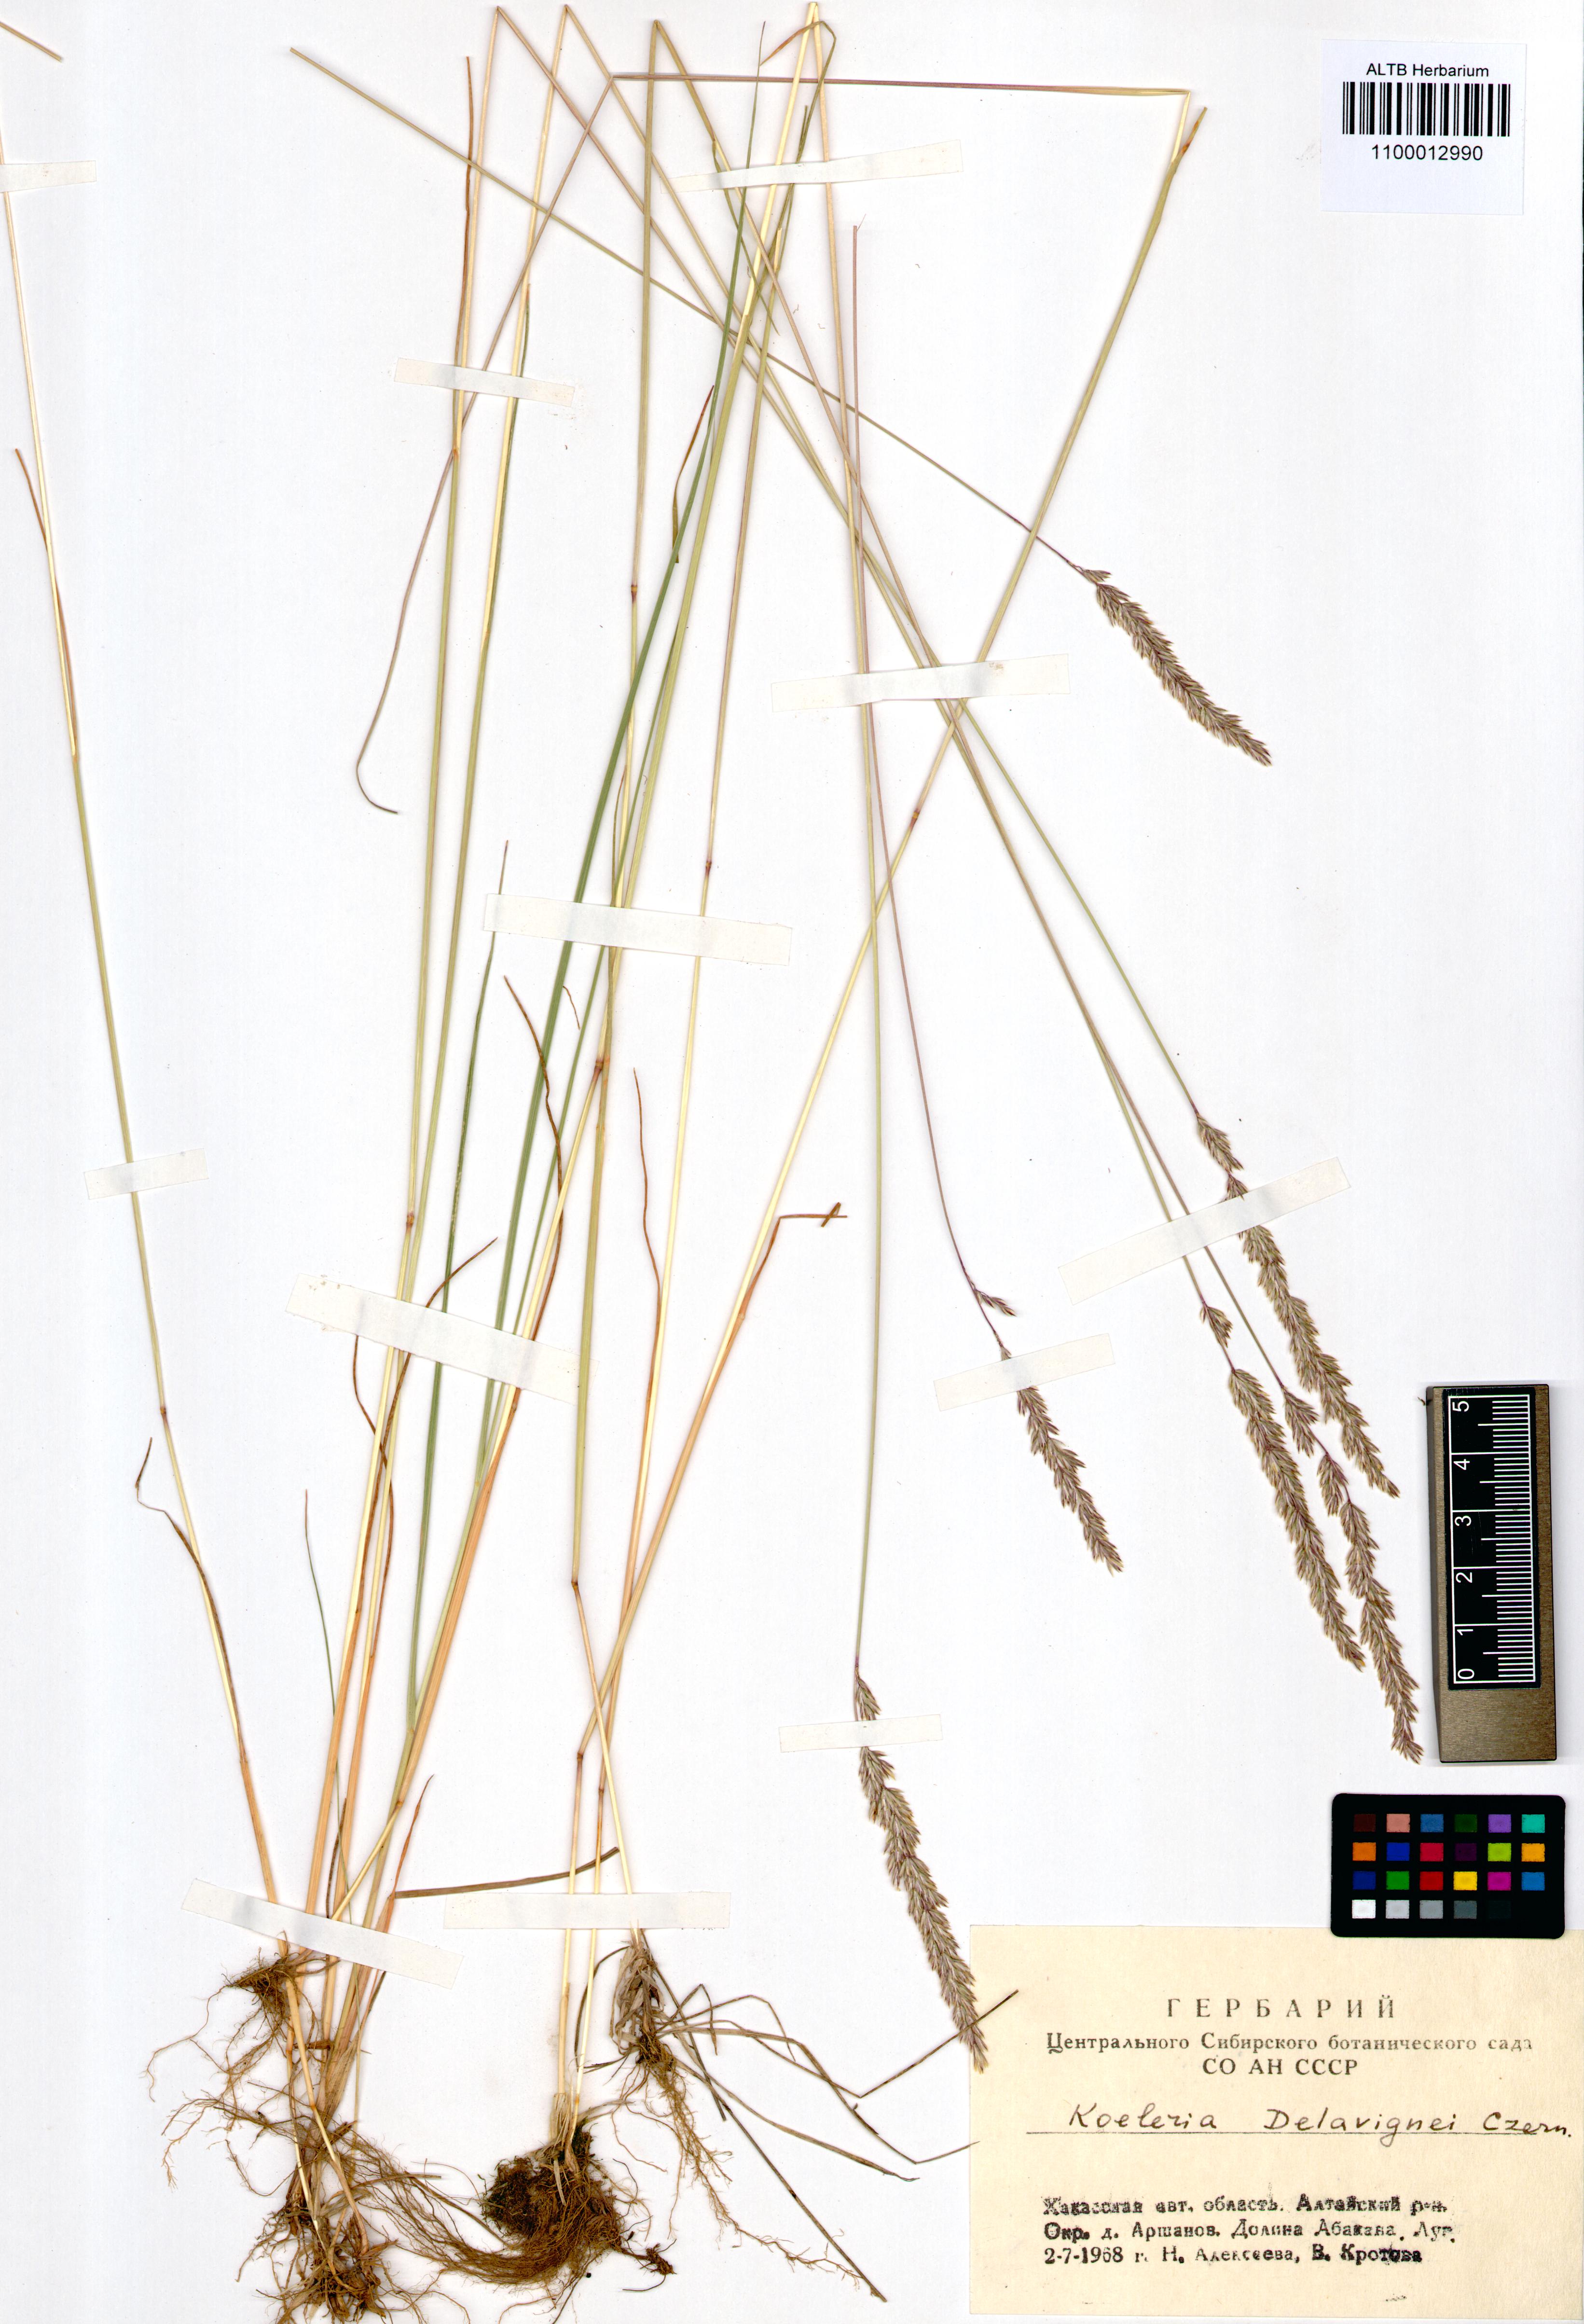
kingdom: Plantae
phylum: Tracheophyta
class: Liliopsida
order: Poales
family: Poaceae
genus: Koeleria
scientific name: Koeleria delavignei
